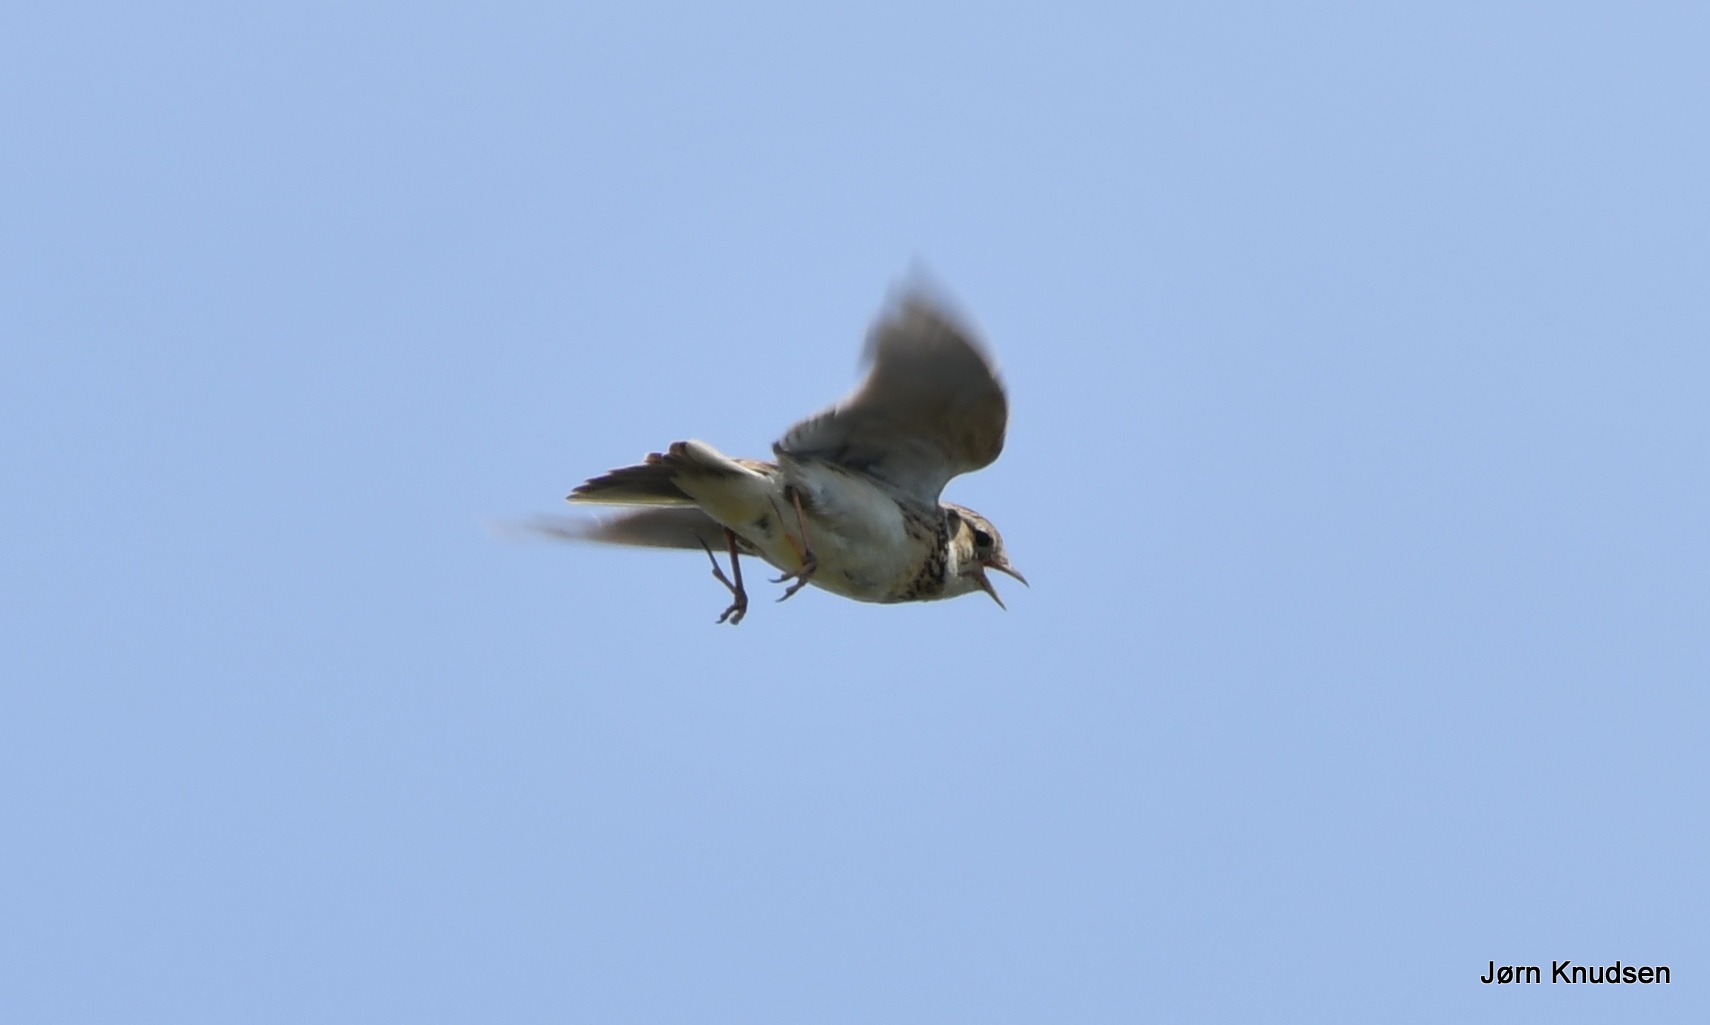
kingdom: Animalia
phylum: Chordata
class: Aves
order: Passeriformes
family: Alaudidae
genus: Alauda
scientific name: Alauda arvensis
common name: Sanglærke
